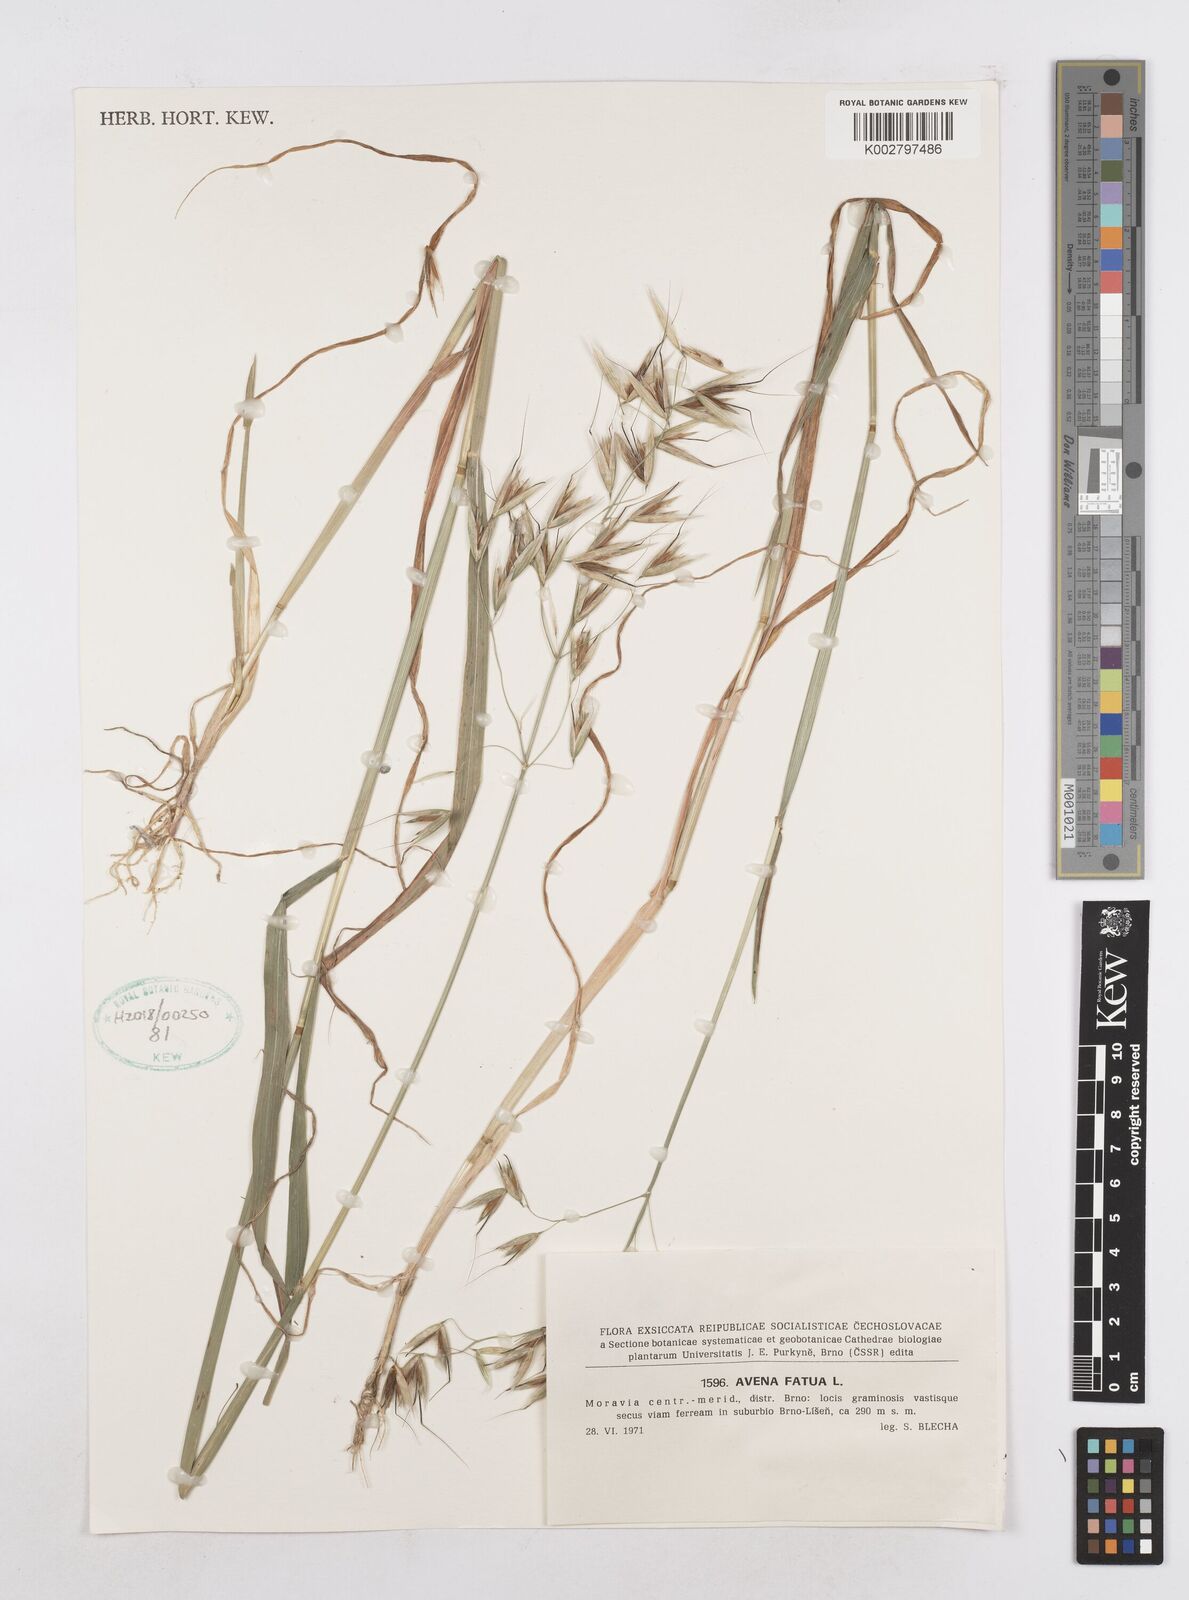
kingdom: Plantae
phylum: Tracheophyta
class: Liliopsida
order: Poales
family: Poaceae
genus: Avena
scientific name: Avena fatua
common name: Wild oat
